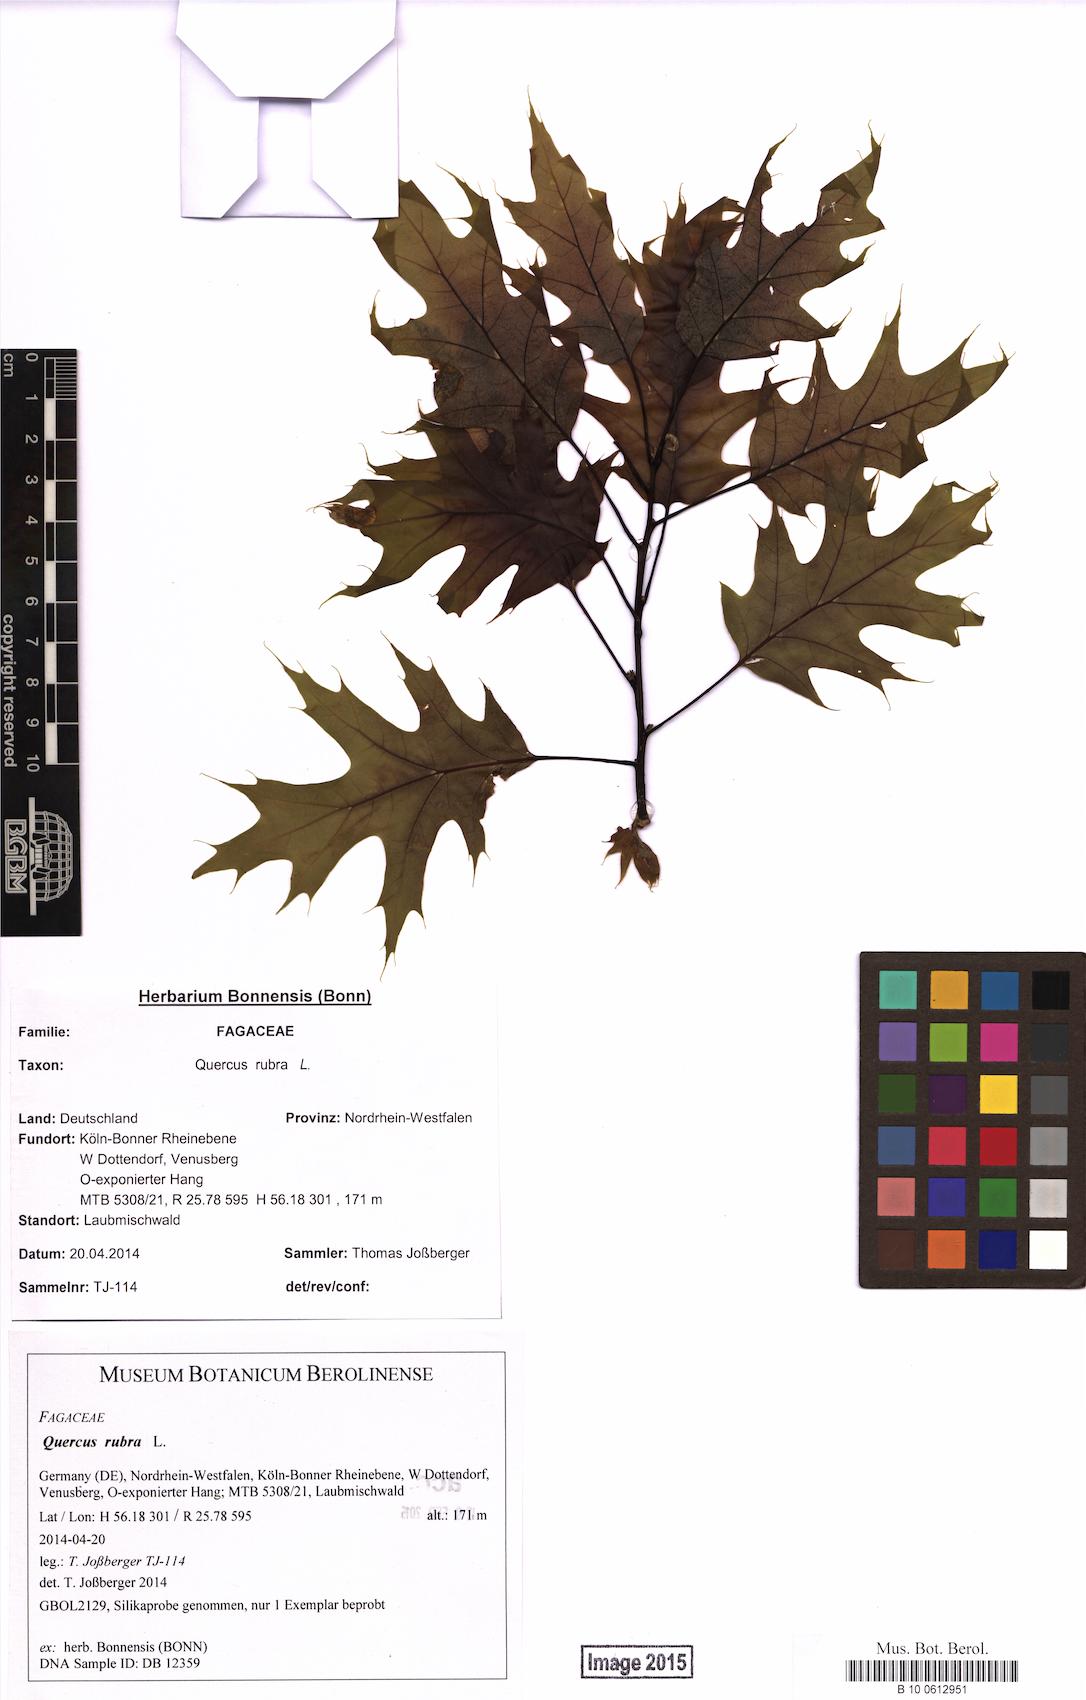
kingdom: Plantae
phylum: Tracheophyta
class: Magnoliopsida
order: Fagales
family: Fagaceae
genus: Quercus
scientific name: Quercus rubra
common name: Red oak
